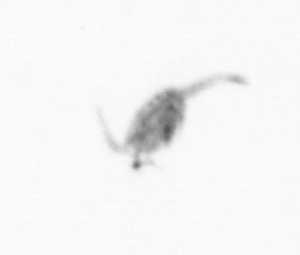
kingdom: Animalia
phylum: Arthropoda
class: Copepoda
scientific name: Copepoda
